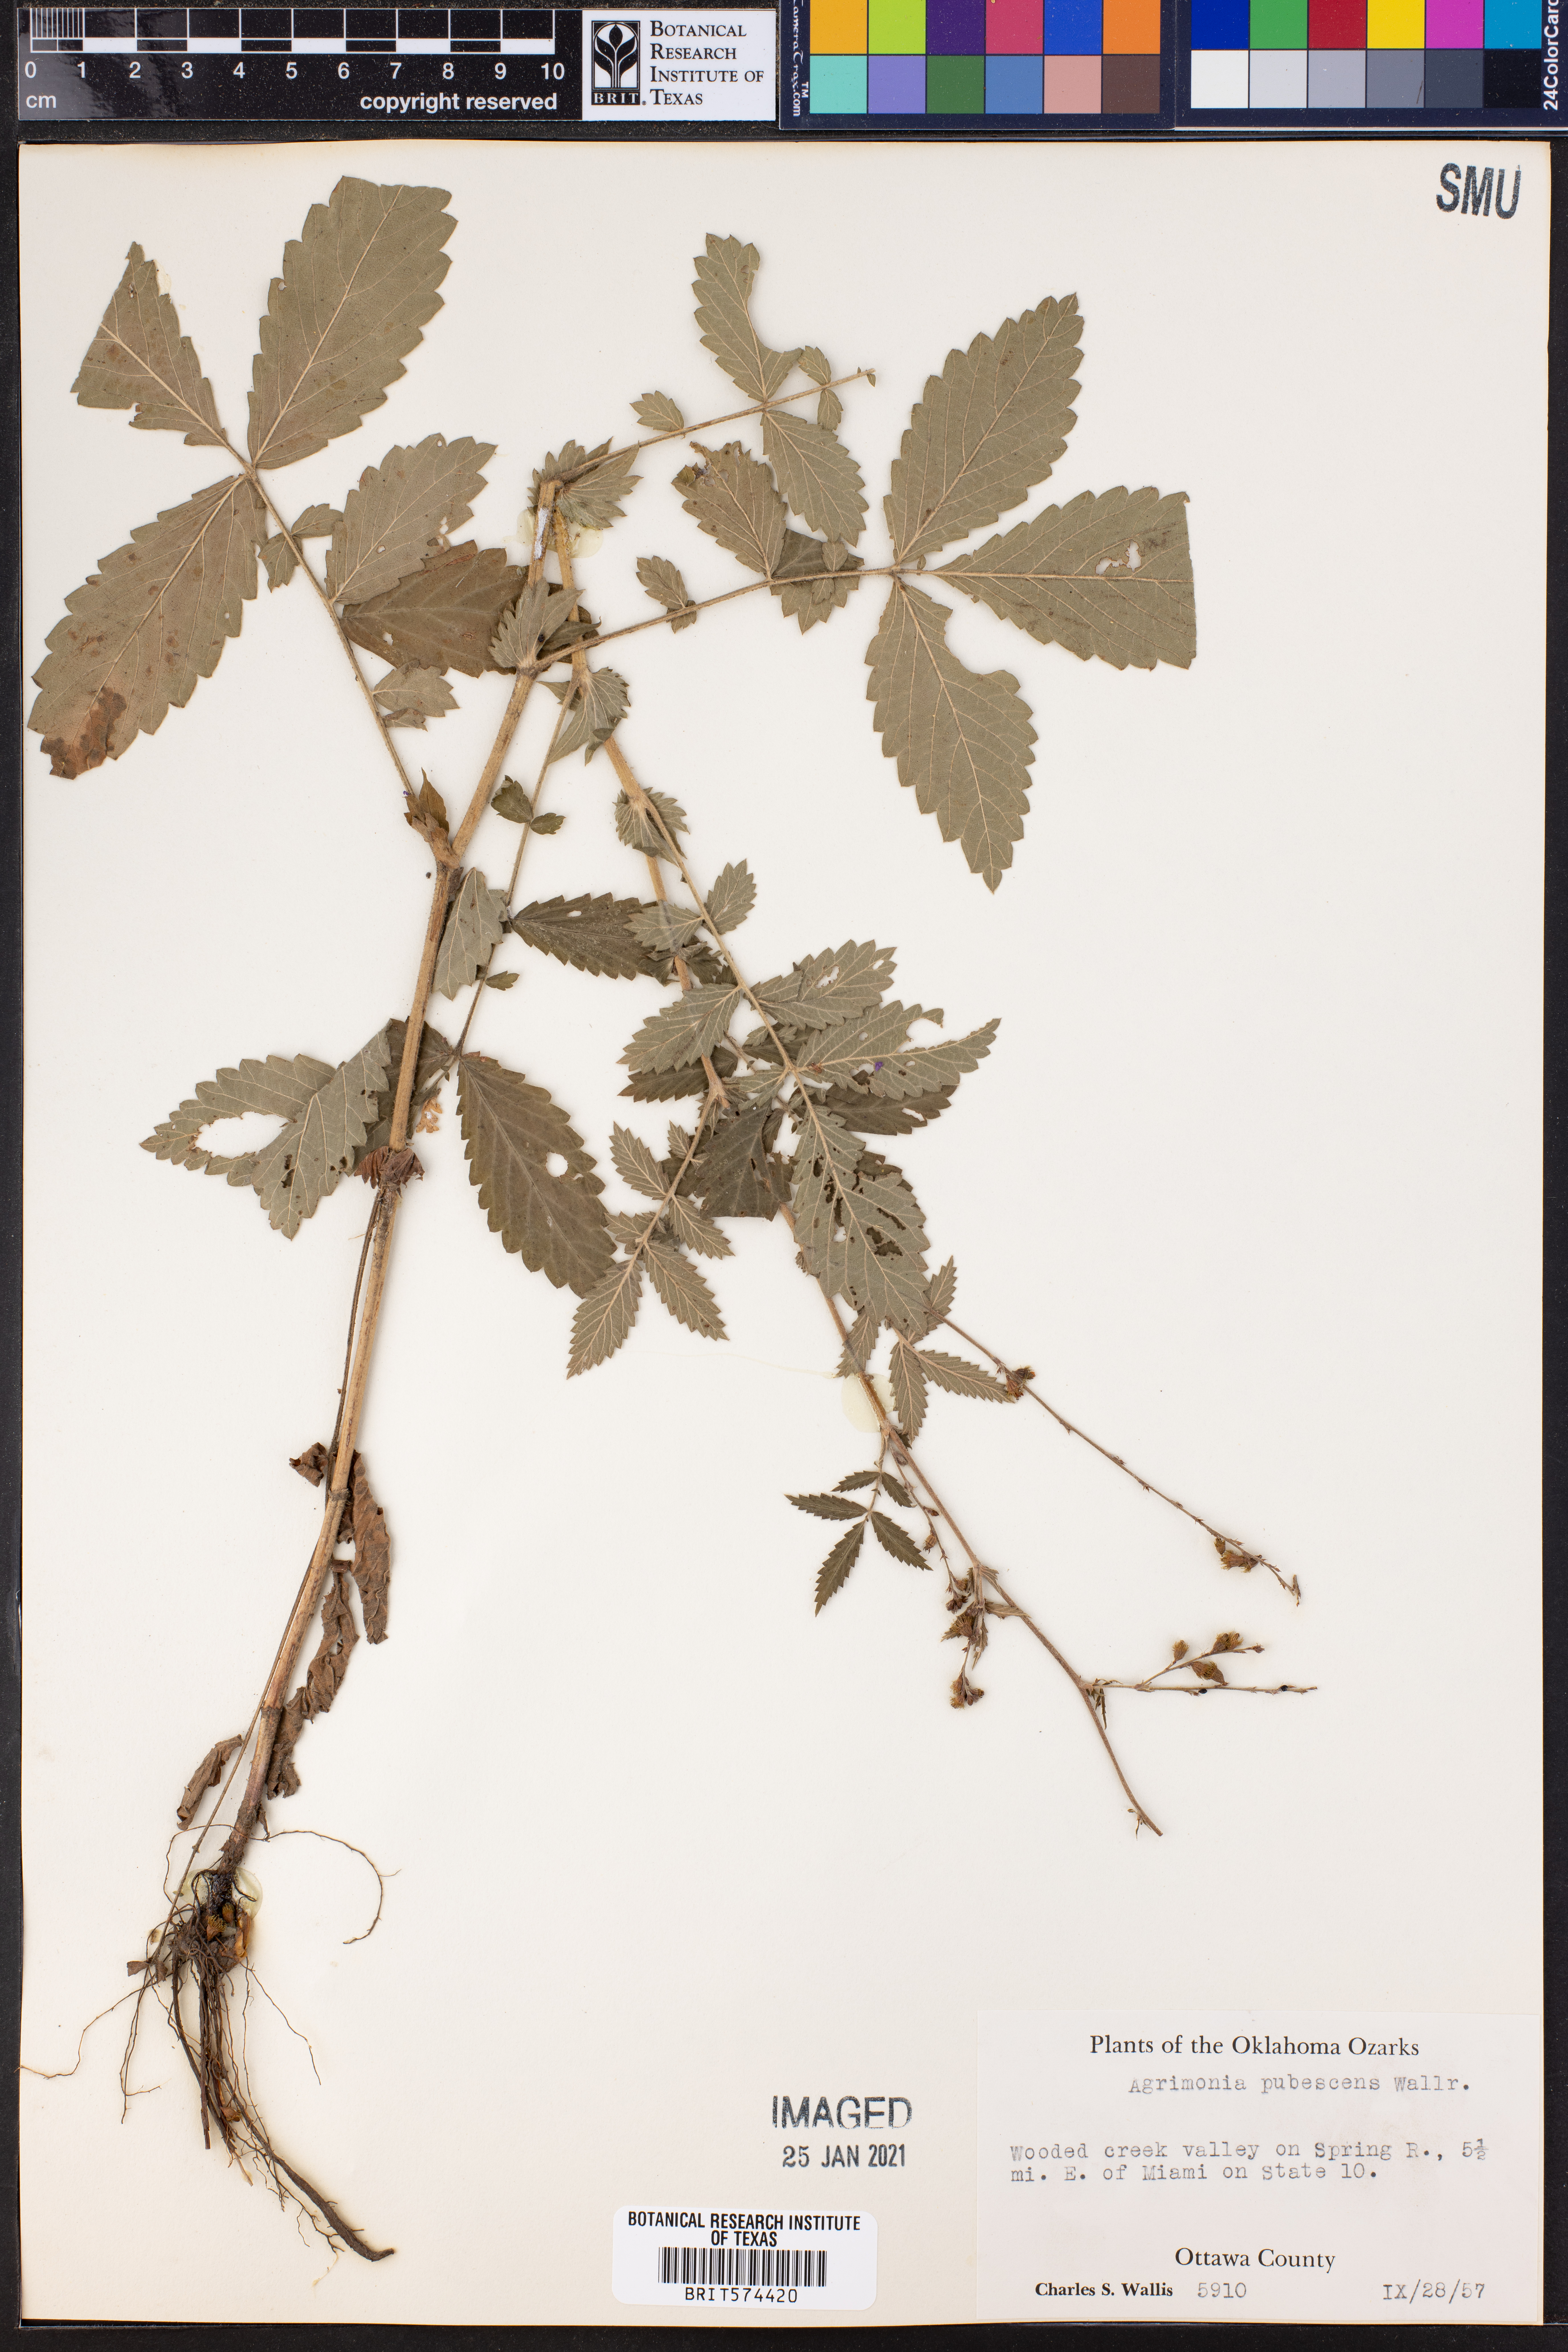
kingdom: Plantae
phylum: Tracheophyta
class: Magnoliopsida
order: Rosales
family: Rosaceae
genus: Agrimonia
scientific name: Agrimonia pubescens
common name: Downy agrimony
